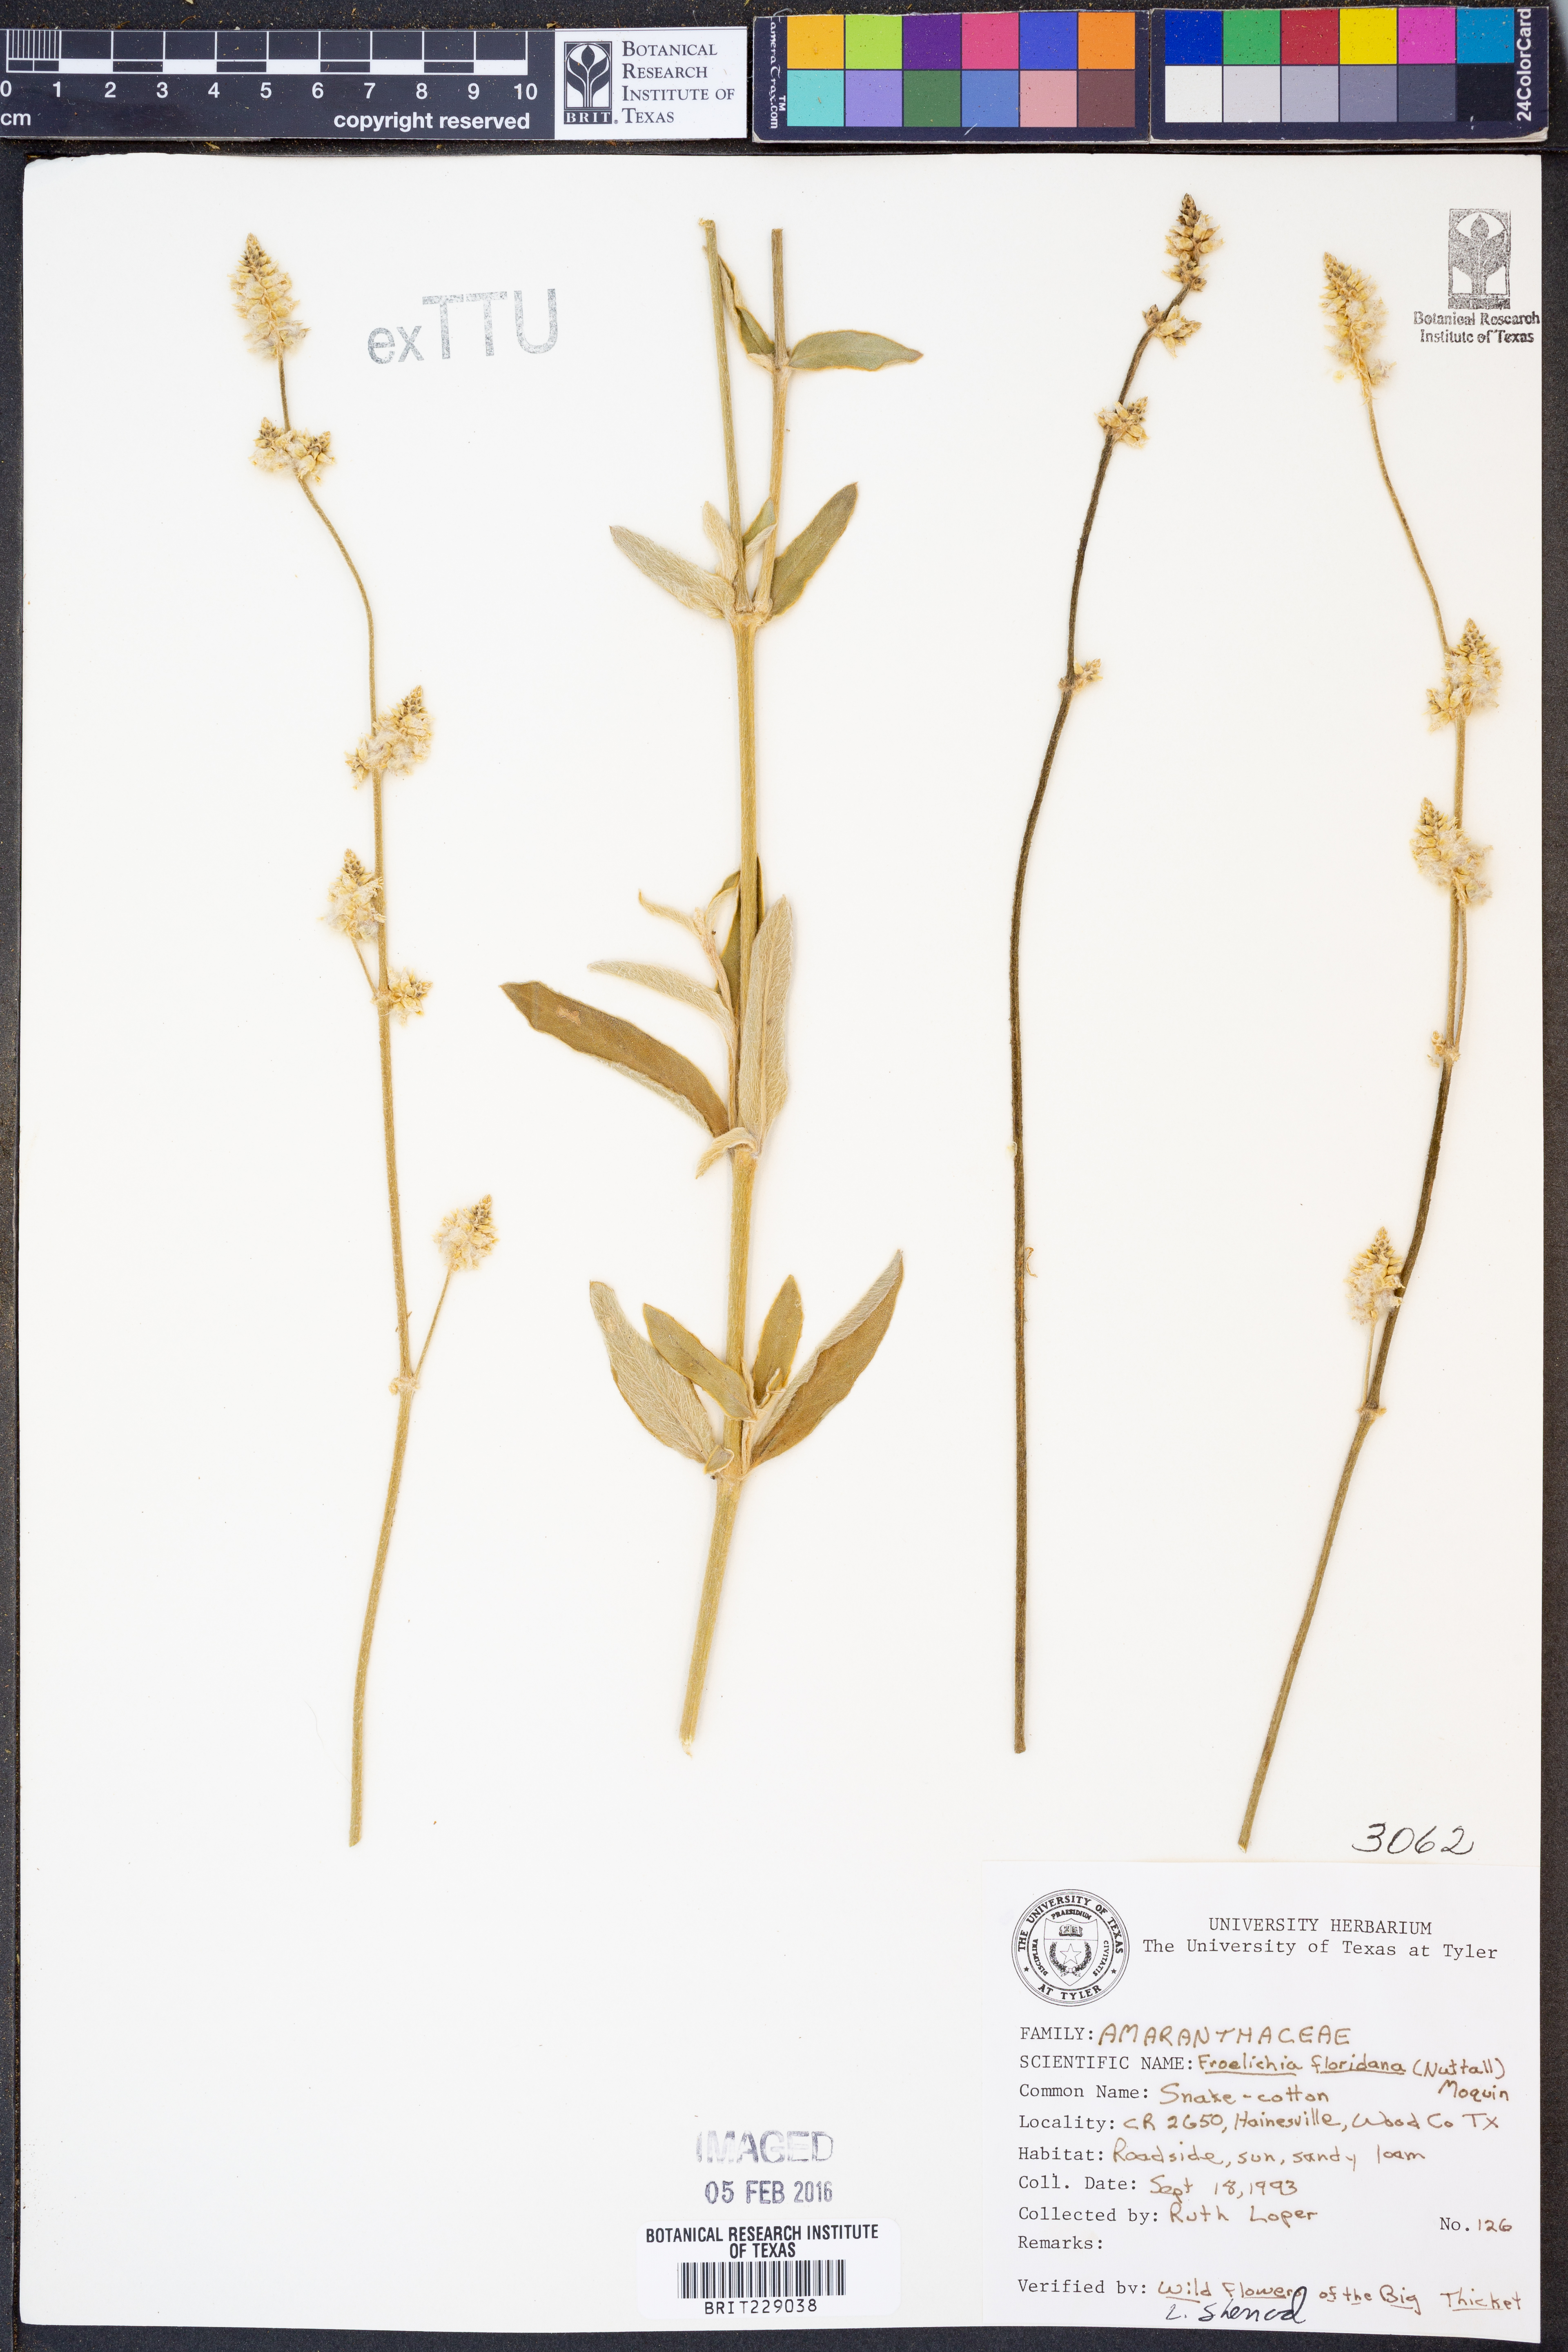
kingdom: Plantae
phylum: Tracheophyta
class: Magnoliopsida
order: Caryophyllales
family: Amaranthaceae
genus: Froelichia
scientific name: Froelichia floridana
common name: Florida snake-cotton
